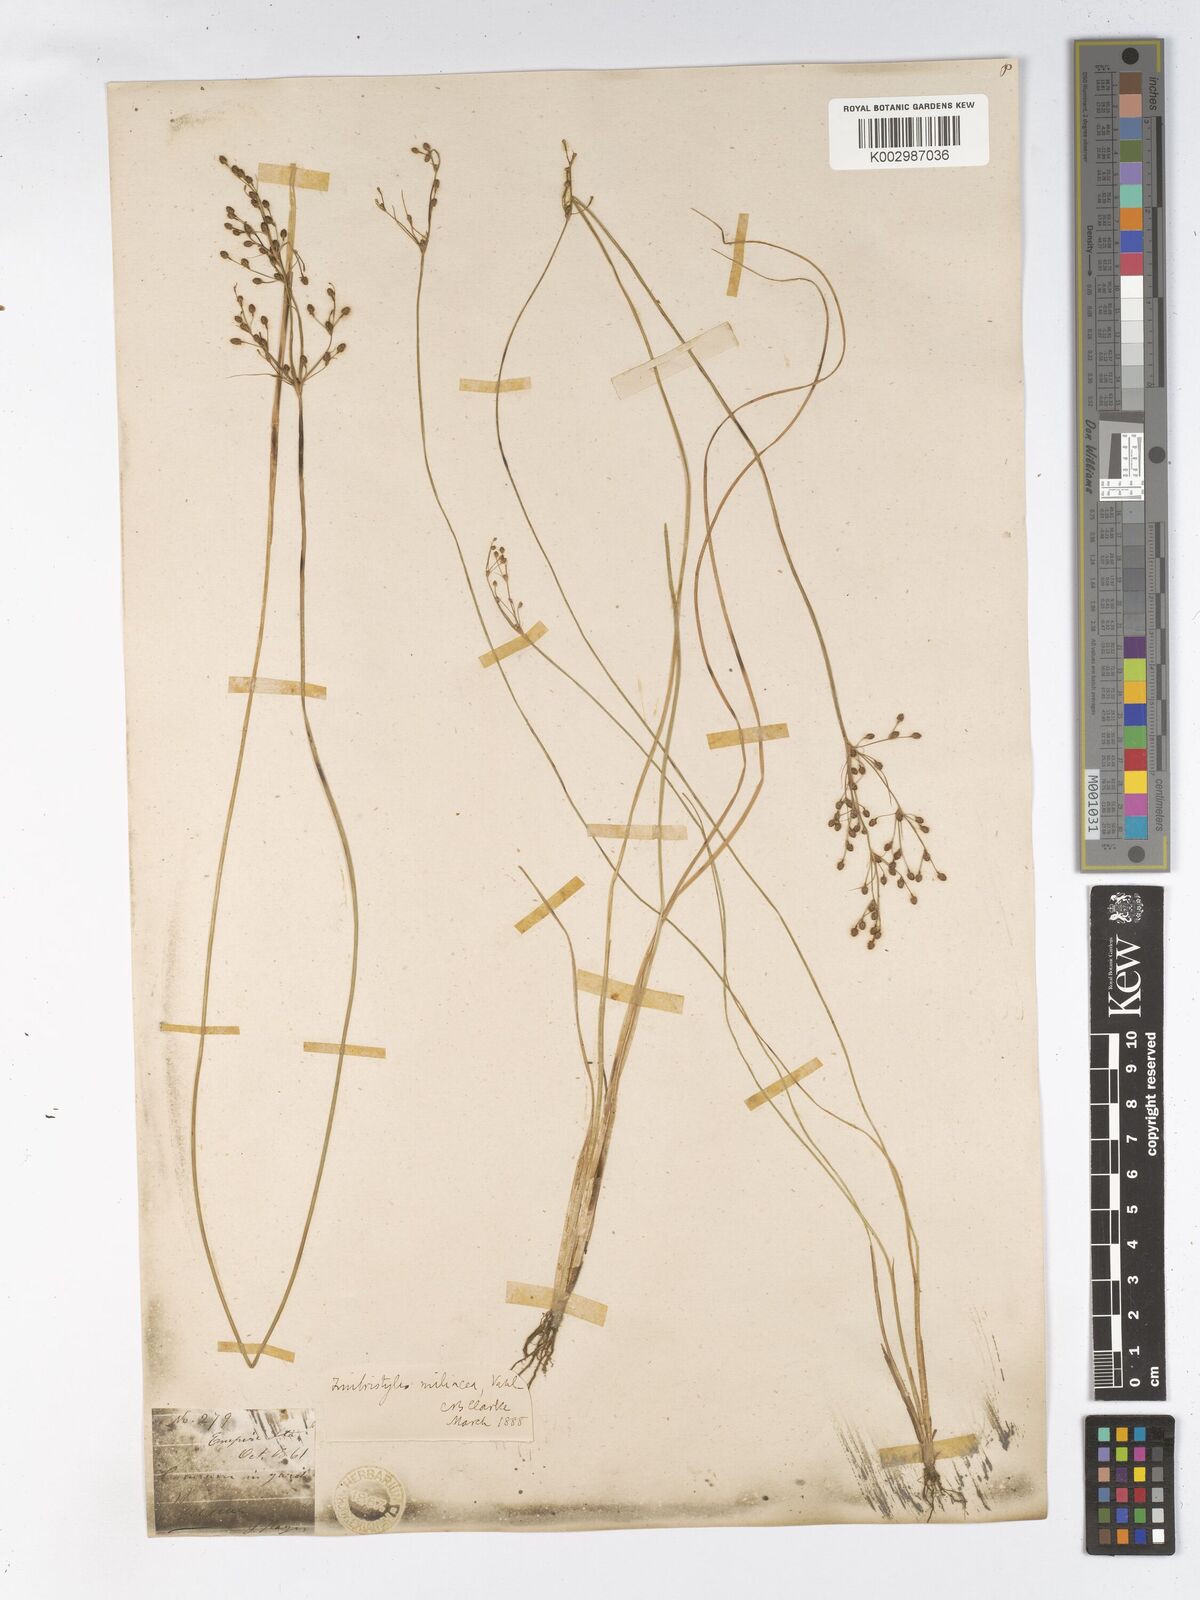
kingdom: Plantae
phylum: Tracheophyta
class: Liliopsida
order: Poales
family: Cyperaceae
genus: Fimbristylis
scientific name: Fimbristylis littoralis
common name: Fimbry
